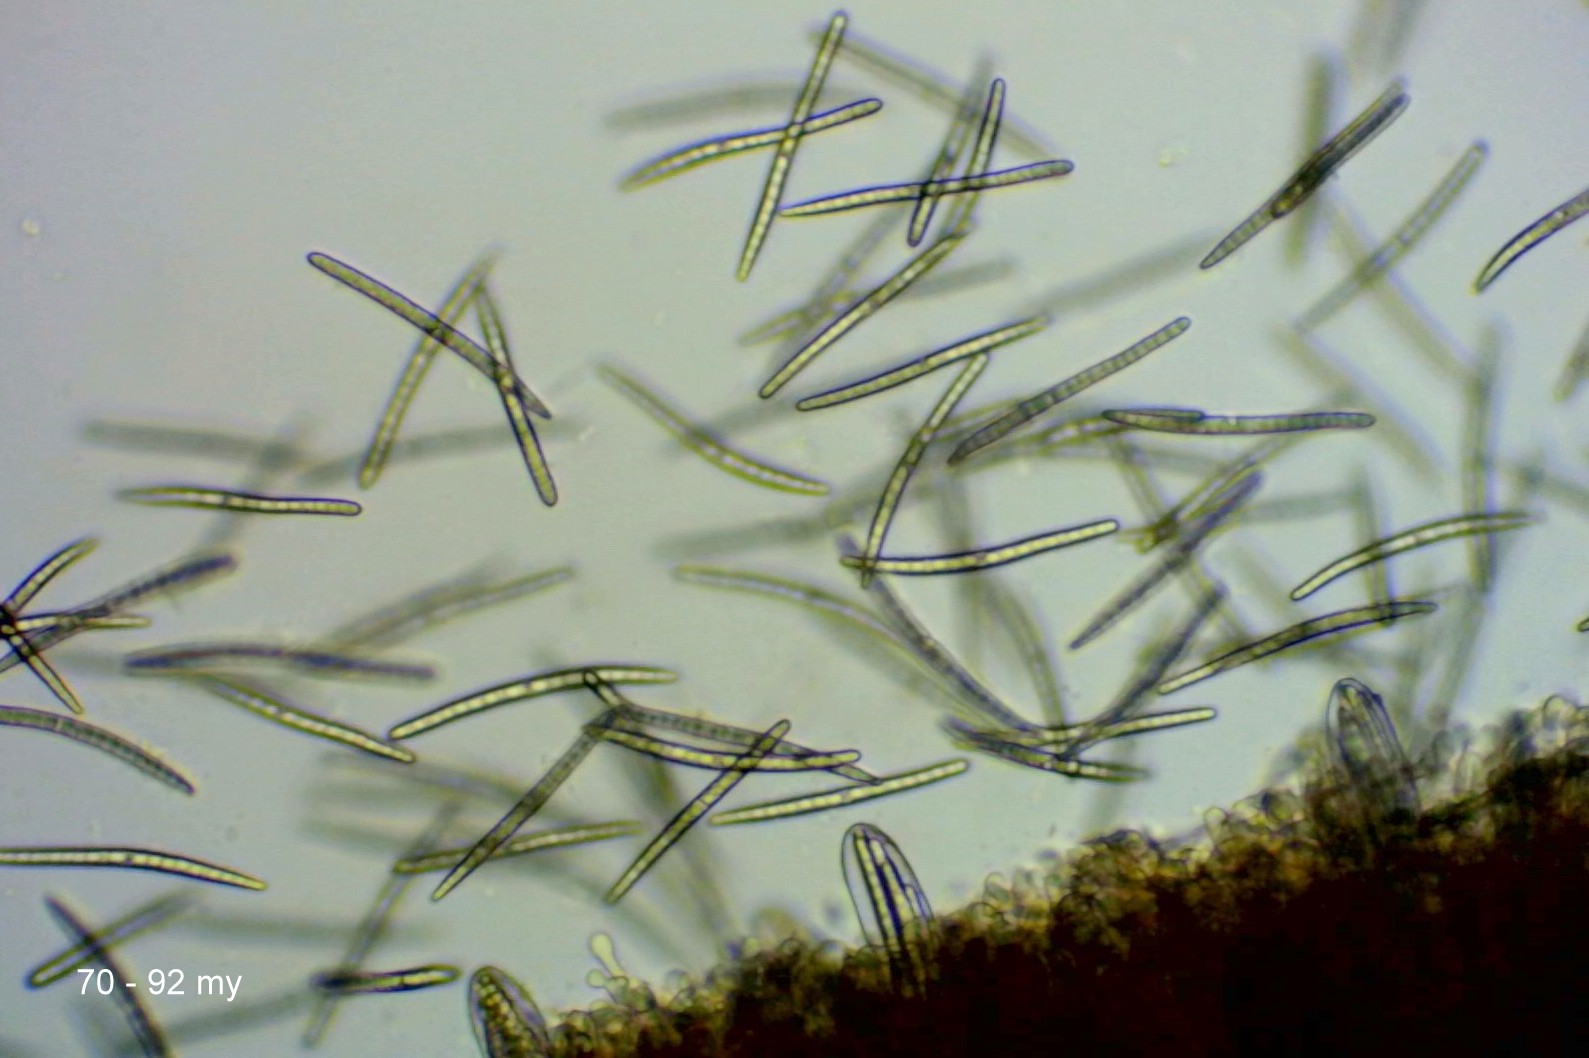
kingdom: Fungi
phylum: Ascomycota
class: Geoglossomycetes
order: Geoglossales
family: Geoglossaceae
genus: Geoglossum
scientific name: Geoglossum fallax
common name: småskællet jordtunge
